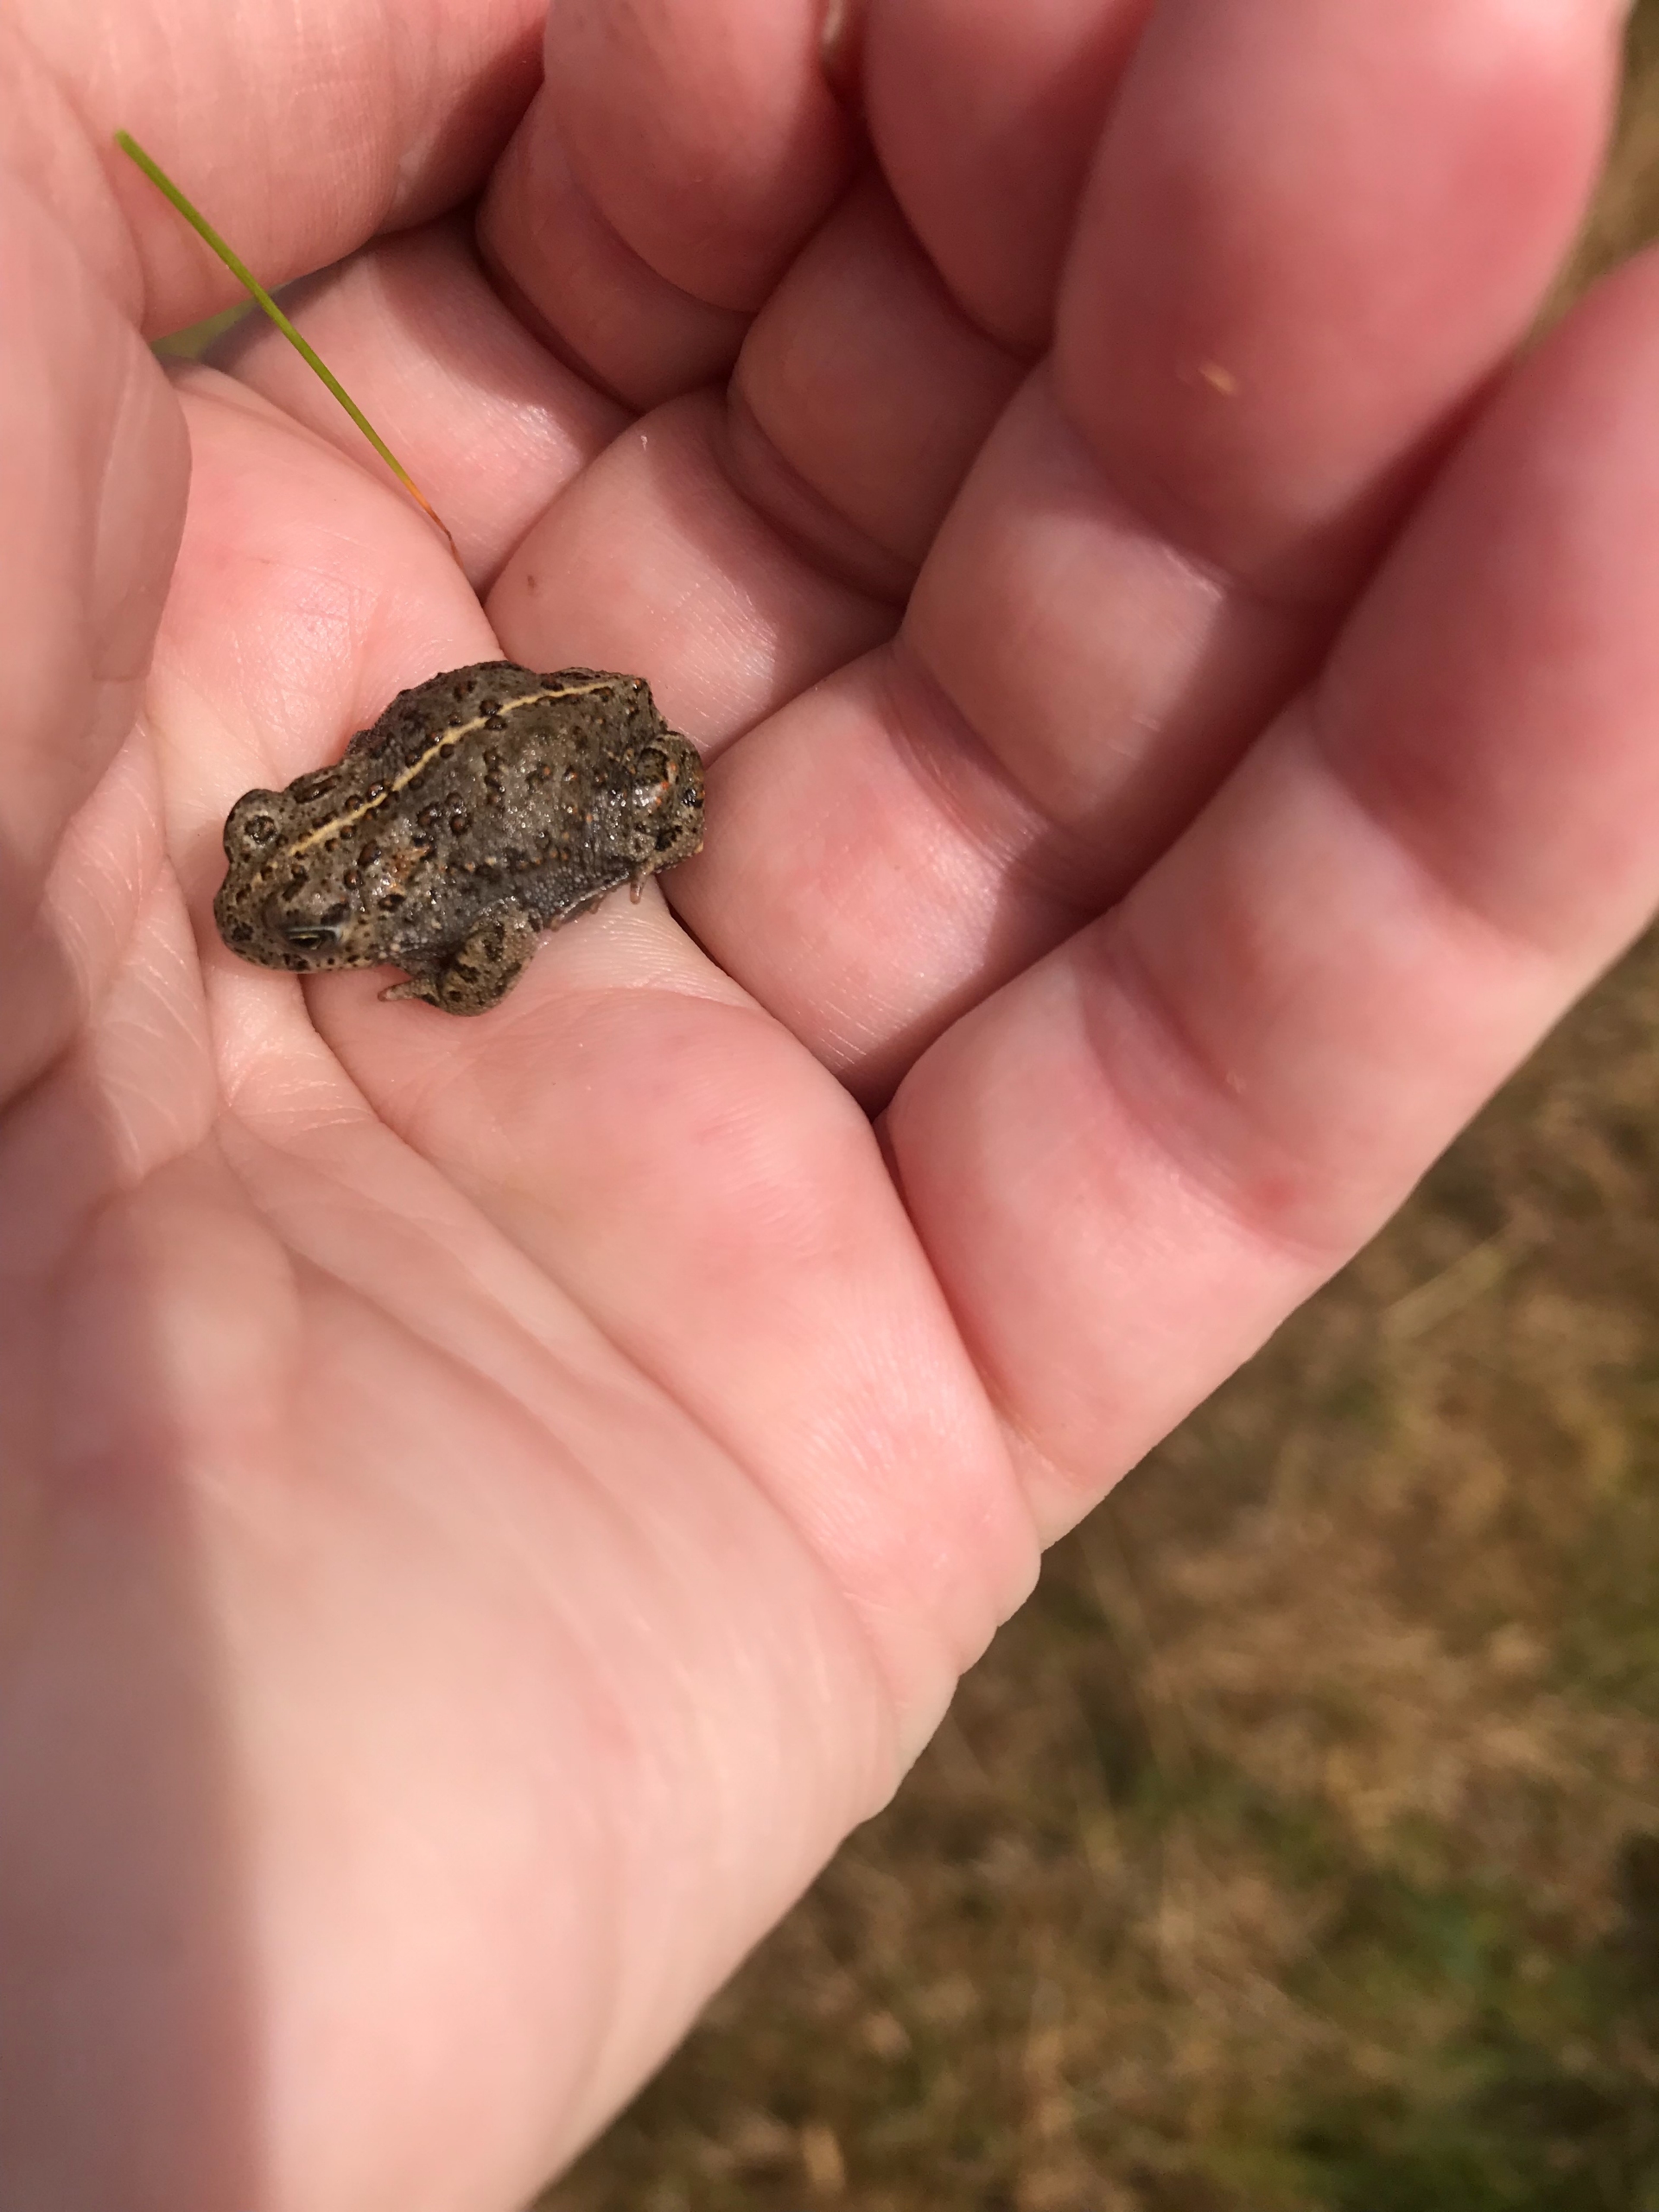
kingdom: Animalia
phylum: Chordata
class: Amphibia
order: Anura
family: Bufonidae
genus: Epidalea
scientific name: Epidalea calamita
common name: Strandtudse
